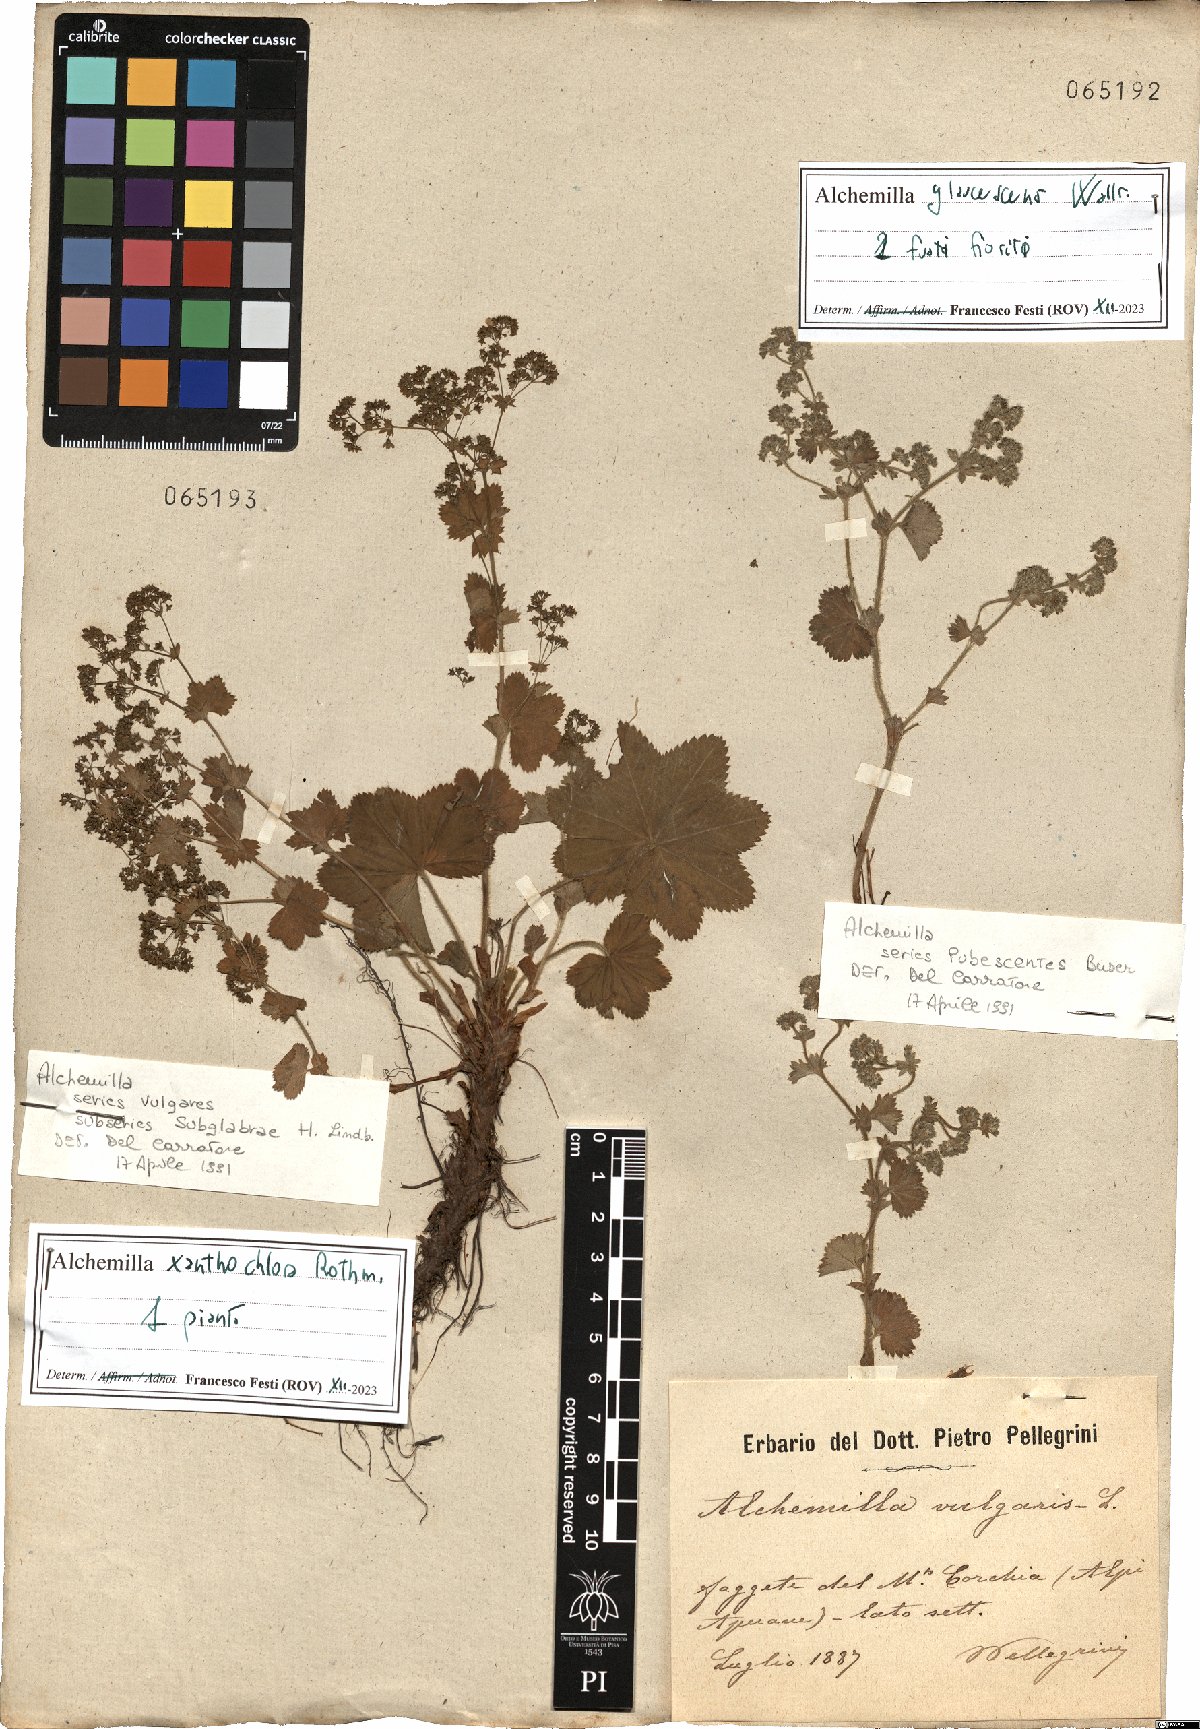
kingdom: Plantae
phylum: Tracheophyta
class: Magnoliopsida
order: Rosales
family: Rosaceae
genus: Alchemilla
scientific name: Alchemilla xanthochlora
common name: Intermediate lady's-mantle
